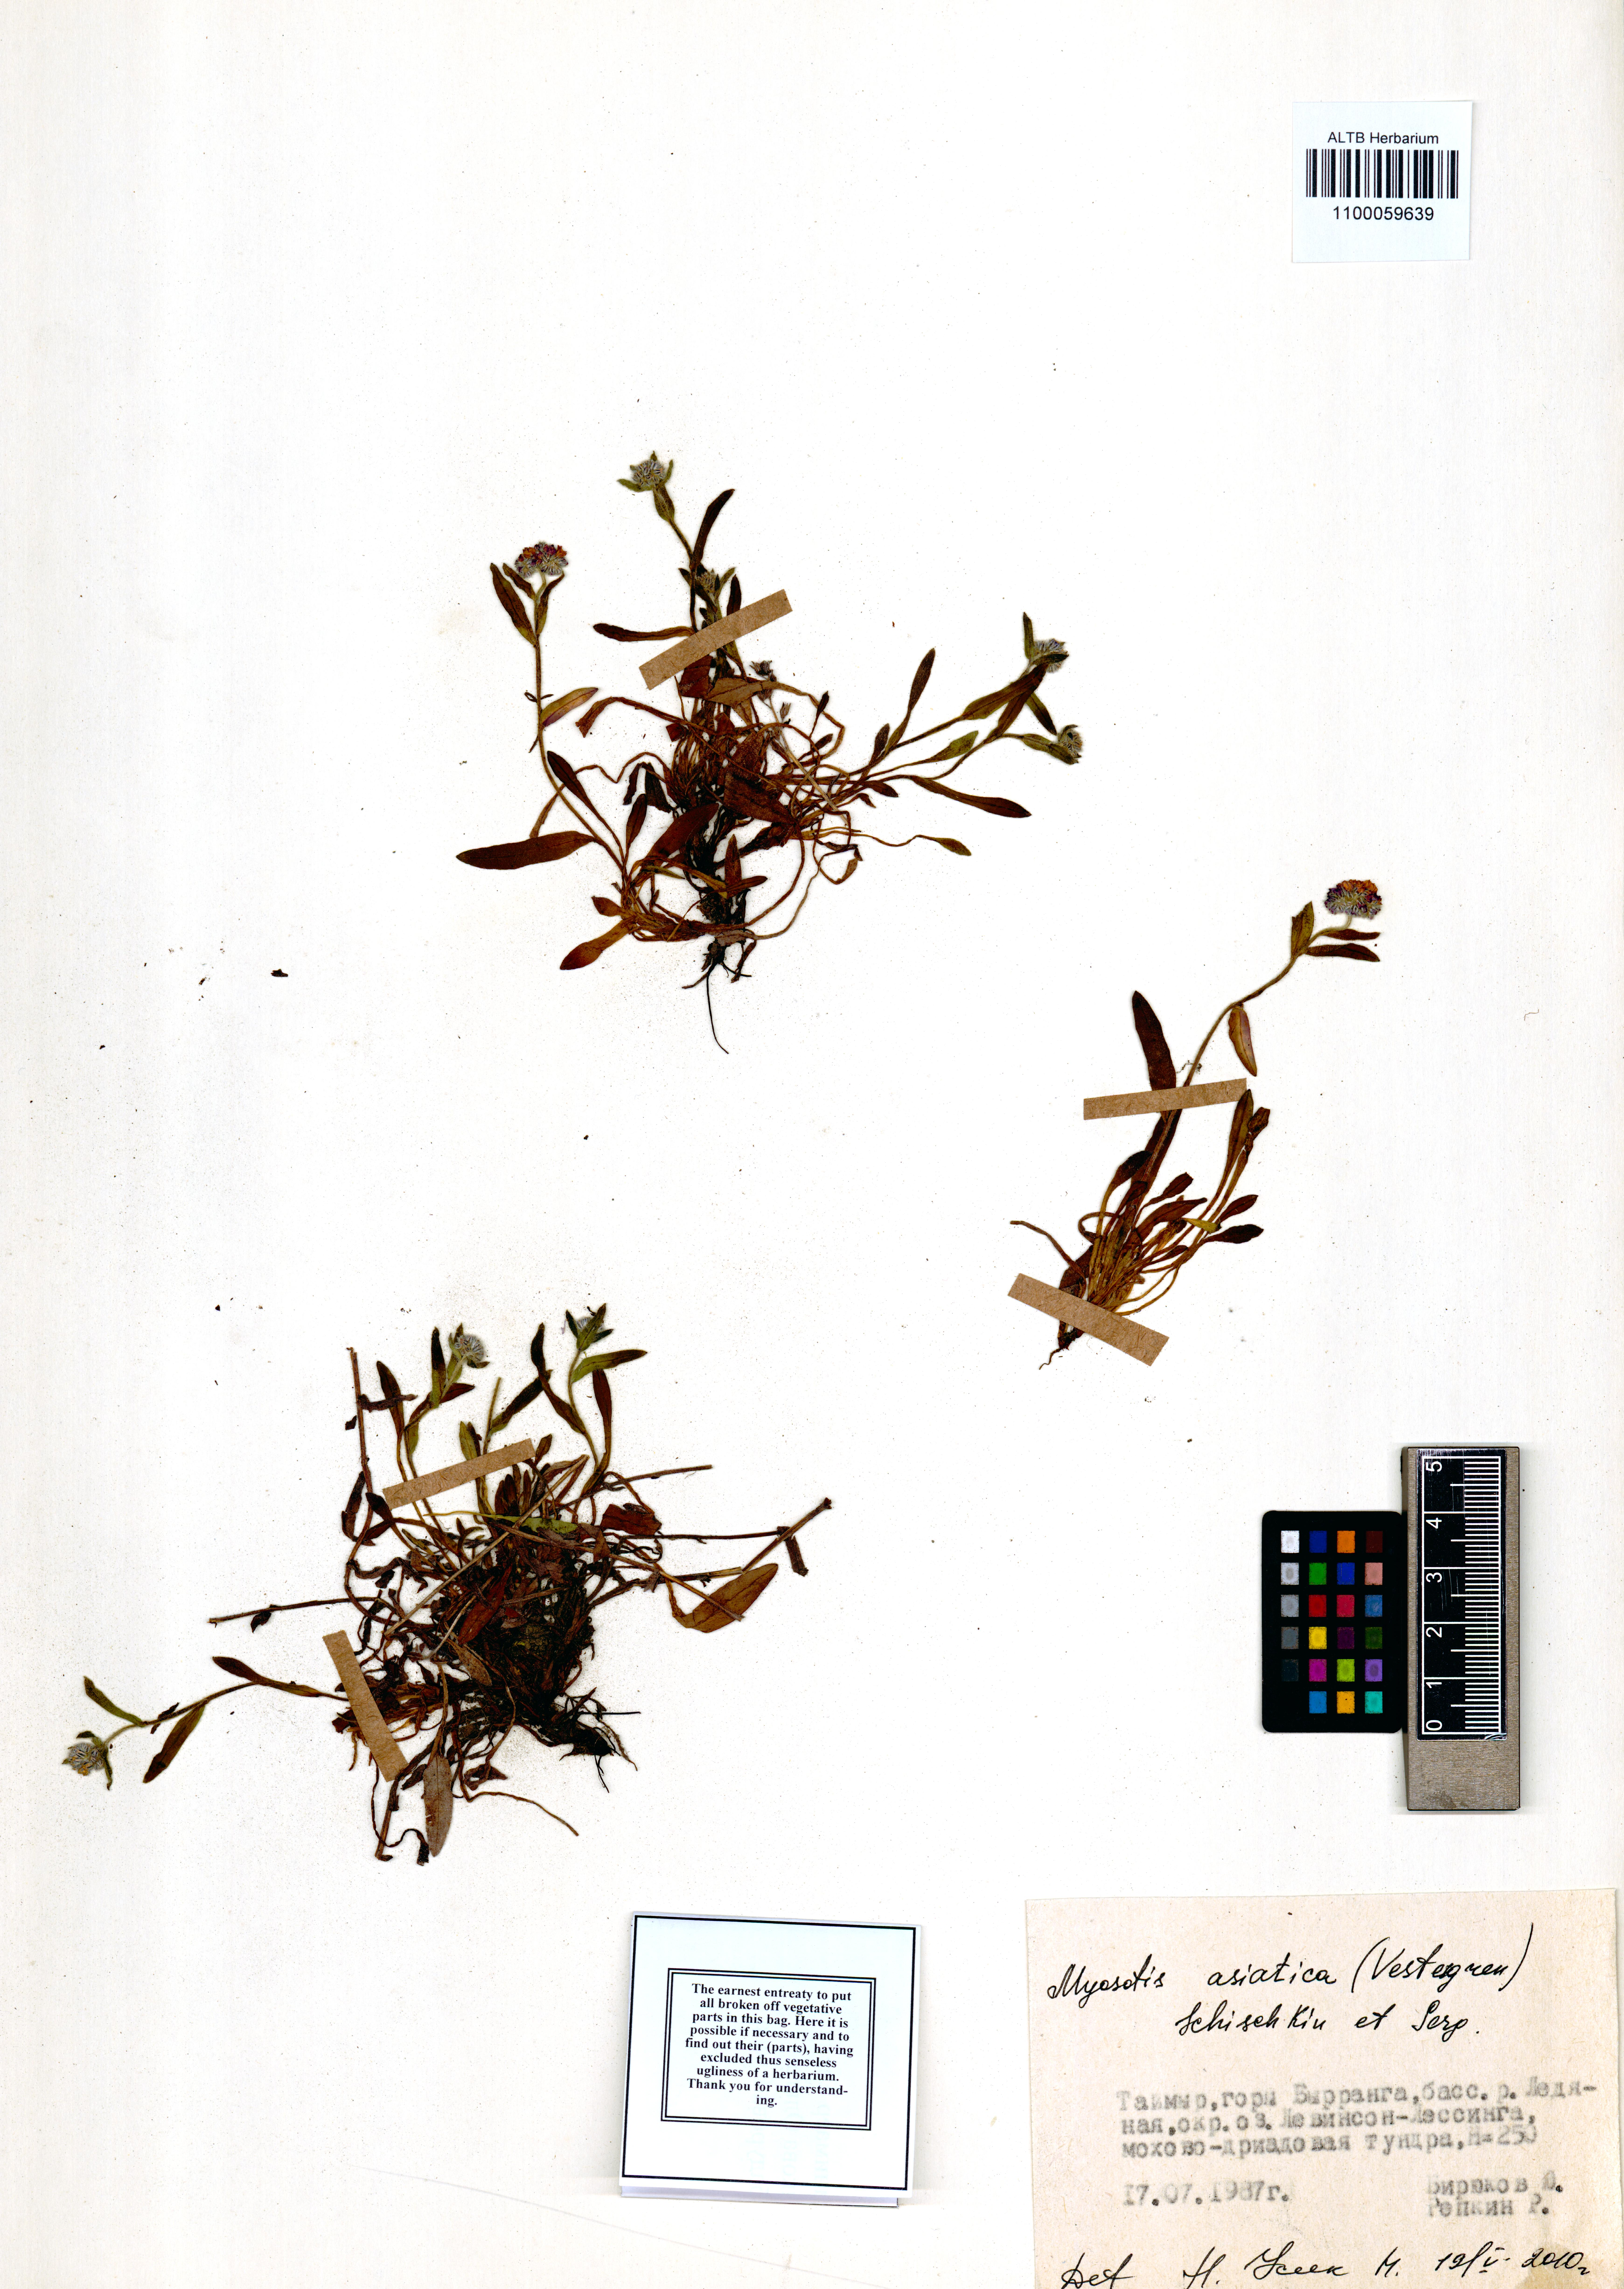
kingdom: Plantae
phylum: Tracheophyta
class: Magnoliopsida
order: Boraginales
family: Boraginaceae
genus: Myosotis
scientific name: Myosotis asiatica
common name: Asian forget-me-not
